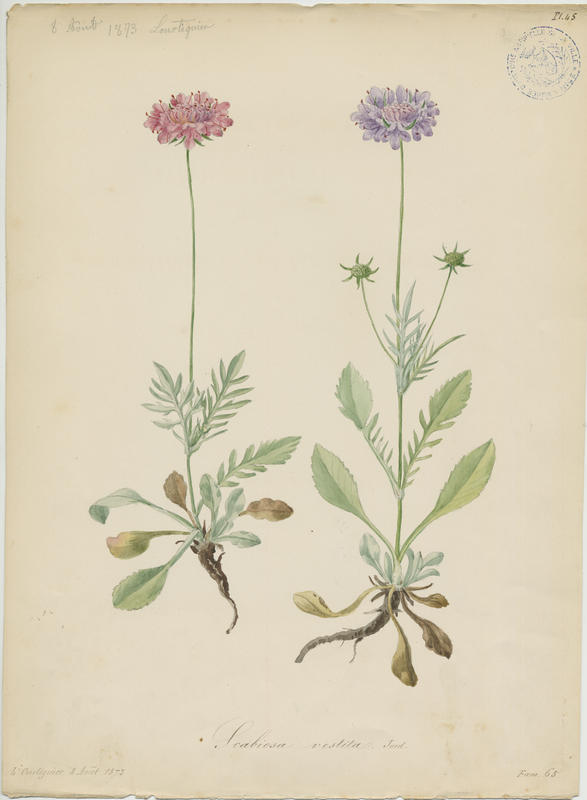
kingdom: Plantae
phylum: Tracheophyta
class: Magnoliopsida
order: Dipsacales
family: Caprifoliaceae
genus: Scabiosa
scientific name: Scabiosa pyrenaica
